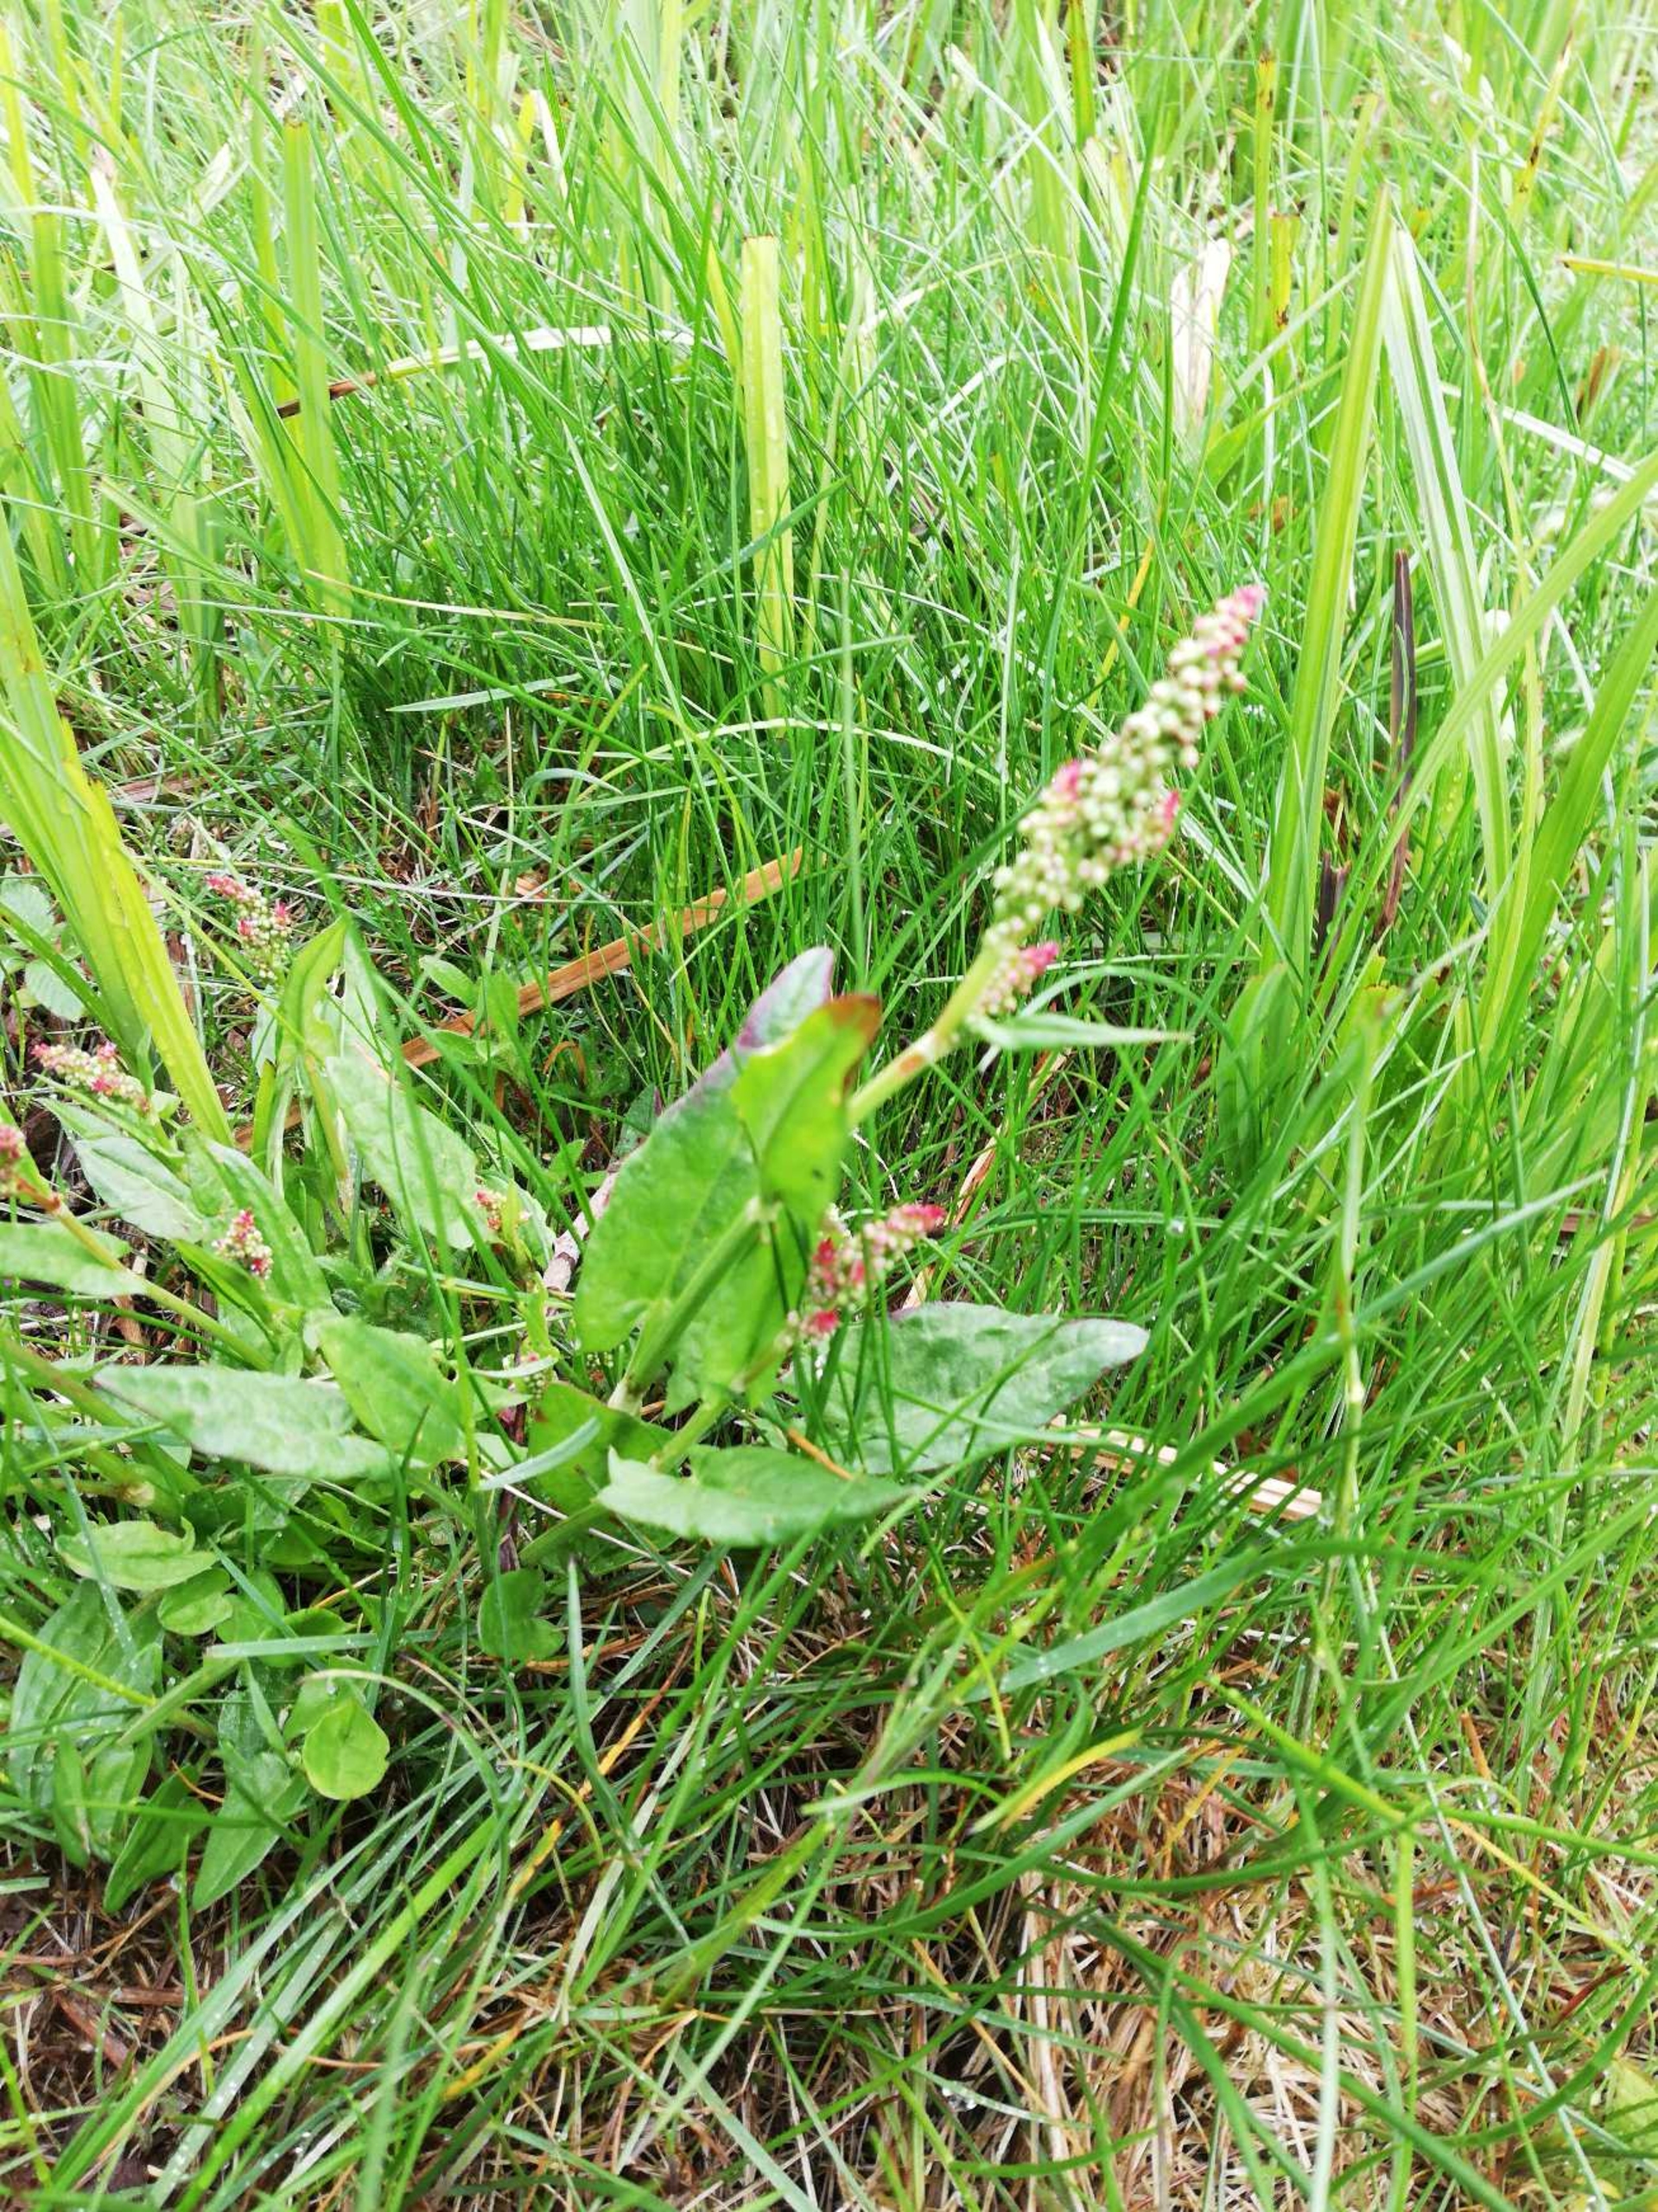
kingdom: Plantae
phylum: Tracheophyta
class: Magnoliopsida
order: Caryophyllales
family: Polygonaceae
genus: Rumex
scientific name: Rumex acetosa
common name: Almindelig syre
